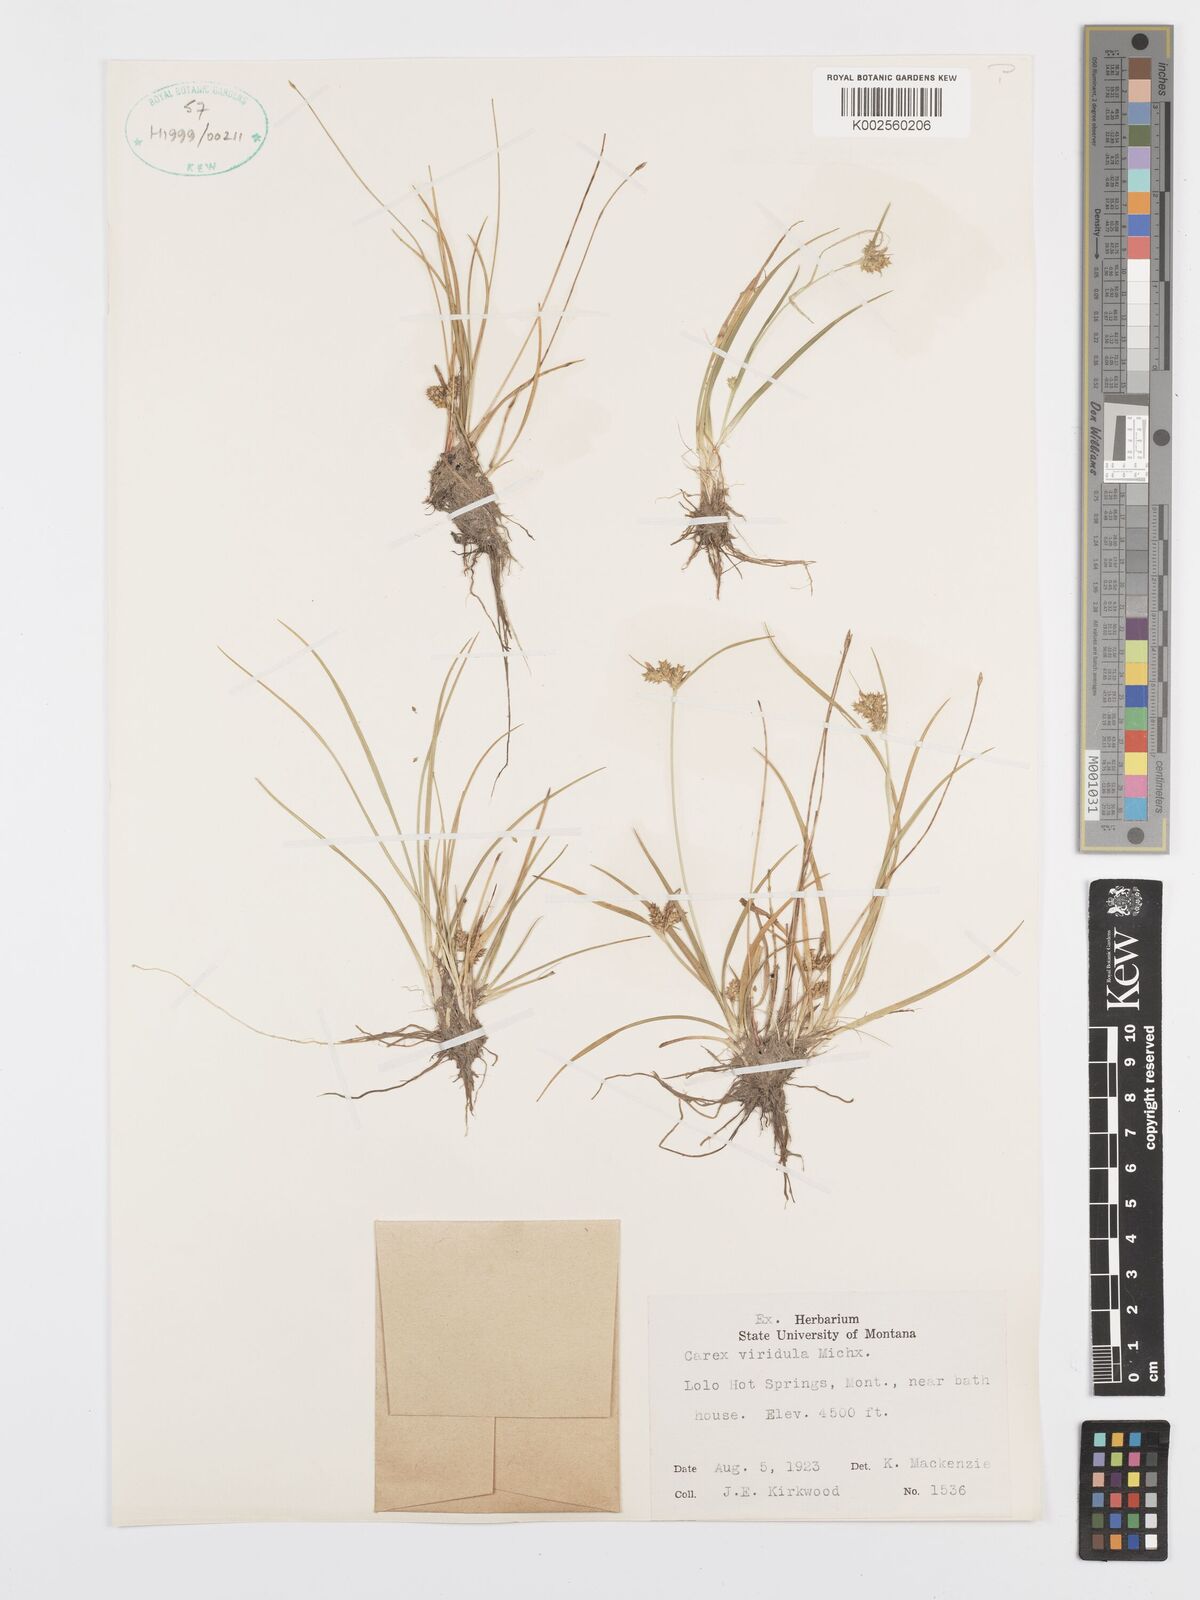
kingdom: Plantae
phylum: Tracheophyta
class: Liliopsida
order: Poales
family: Cyperaceae
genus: Carex
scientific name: Carex oederi
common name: Common & small-fruited yellow-sedge
